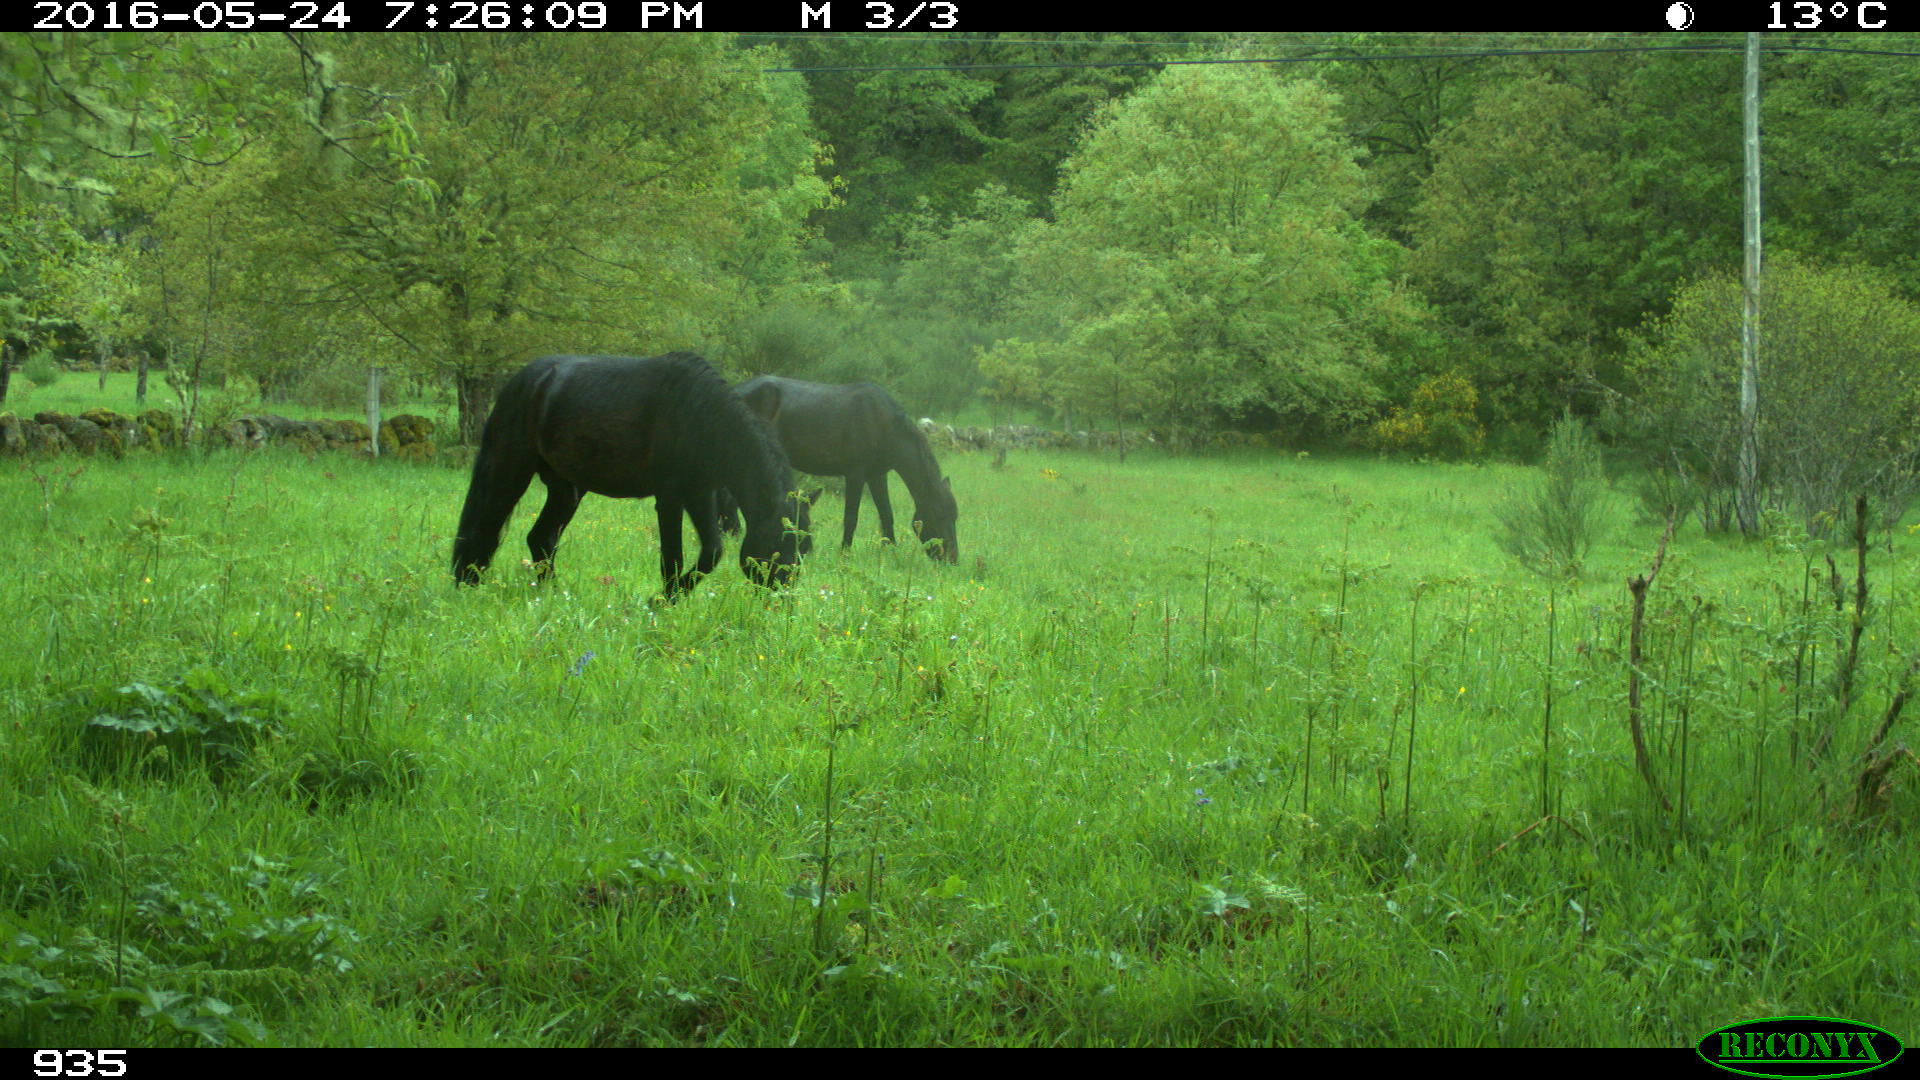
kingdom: Animalia
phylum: Chordata
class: Mammalia
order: Perissodactyla
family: Equidae
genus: Equus
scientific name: Equus caballus
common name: Horse
